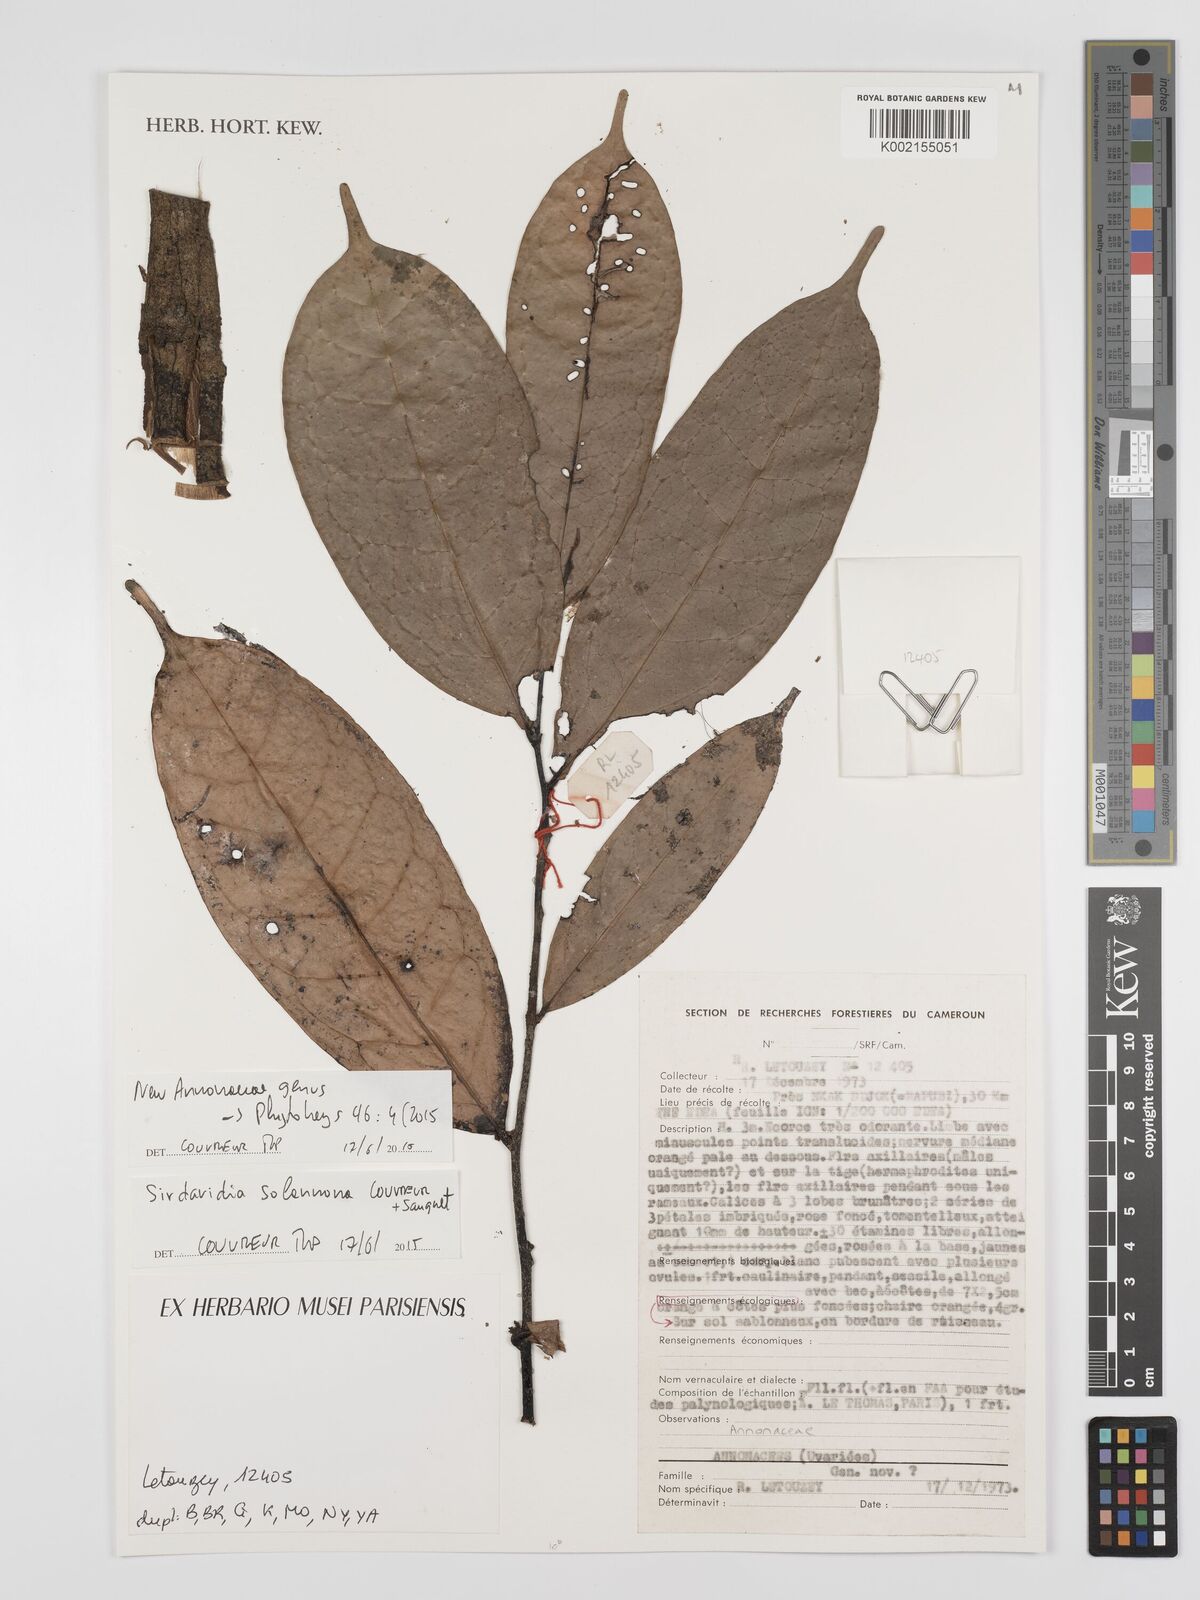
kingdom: Plantae
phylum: Tracheophyta
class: Magnoliopsida
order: Magnoliales
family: Annonaceae
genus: Sirdavidia
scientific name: Sirdavidia solannona
